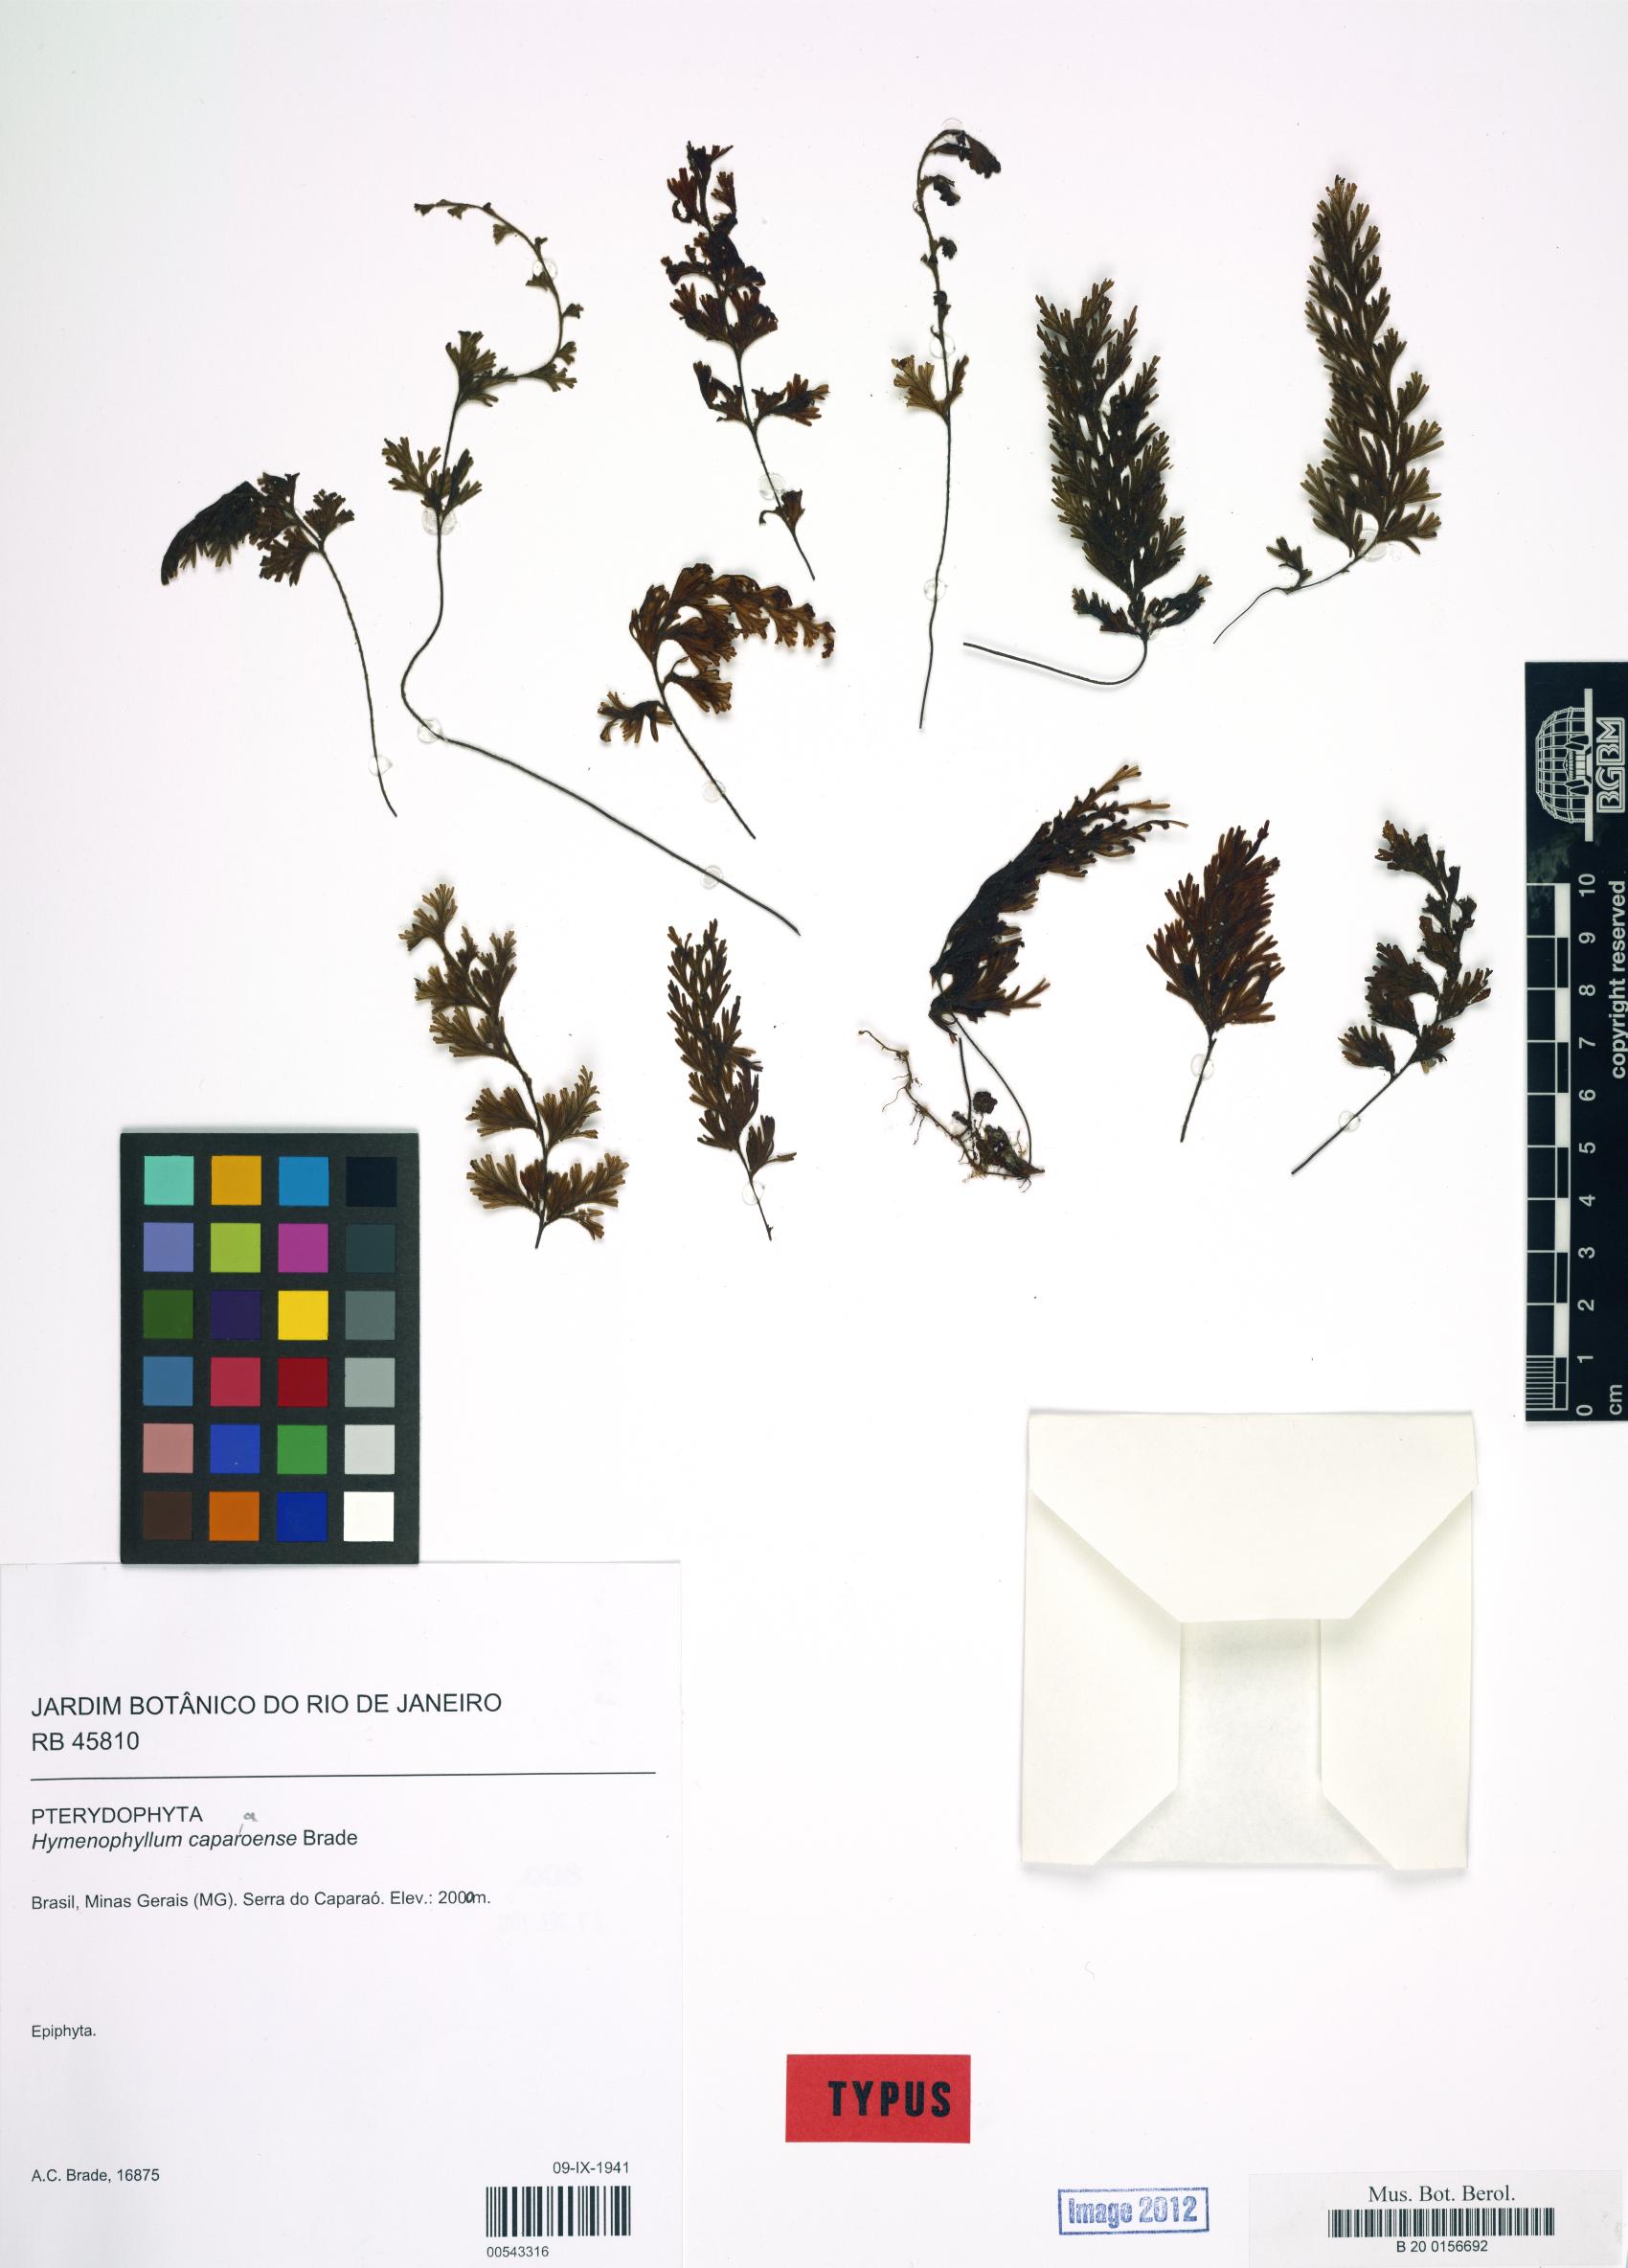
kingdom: Plantae
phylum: Tracheophyta
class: Polypodiopsida
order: Hymenophyllales
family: Hymenophyllaceae
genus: Hymenophyllum
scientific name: Hymenophyllum caparaoense
